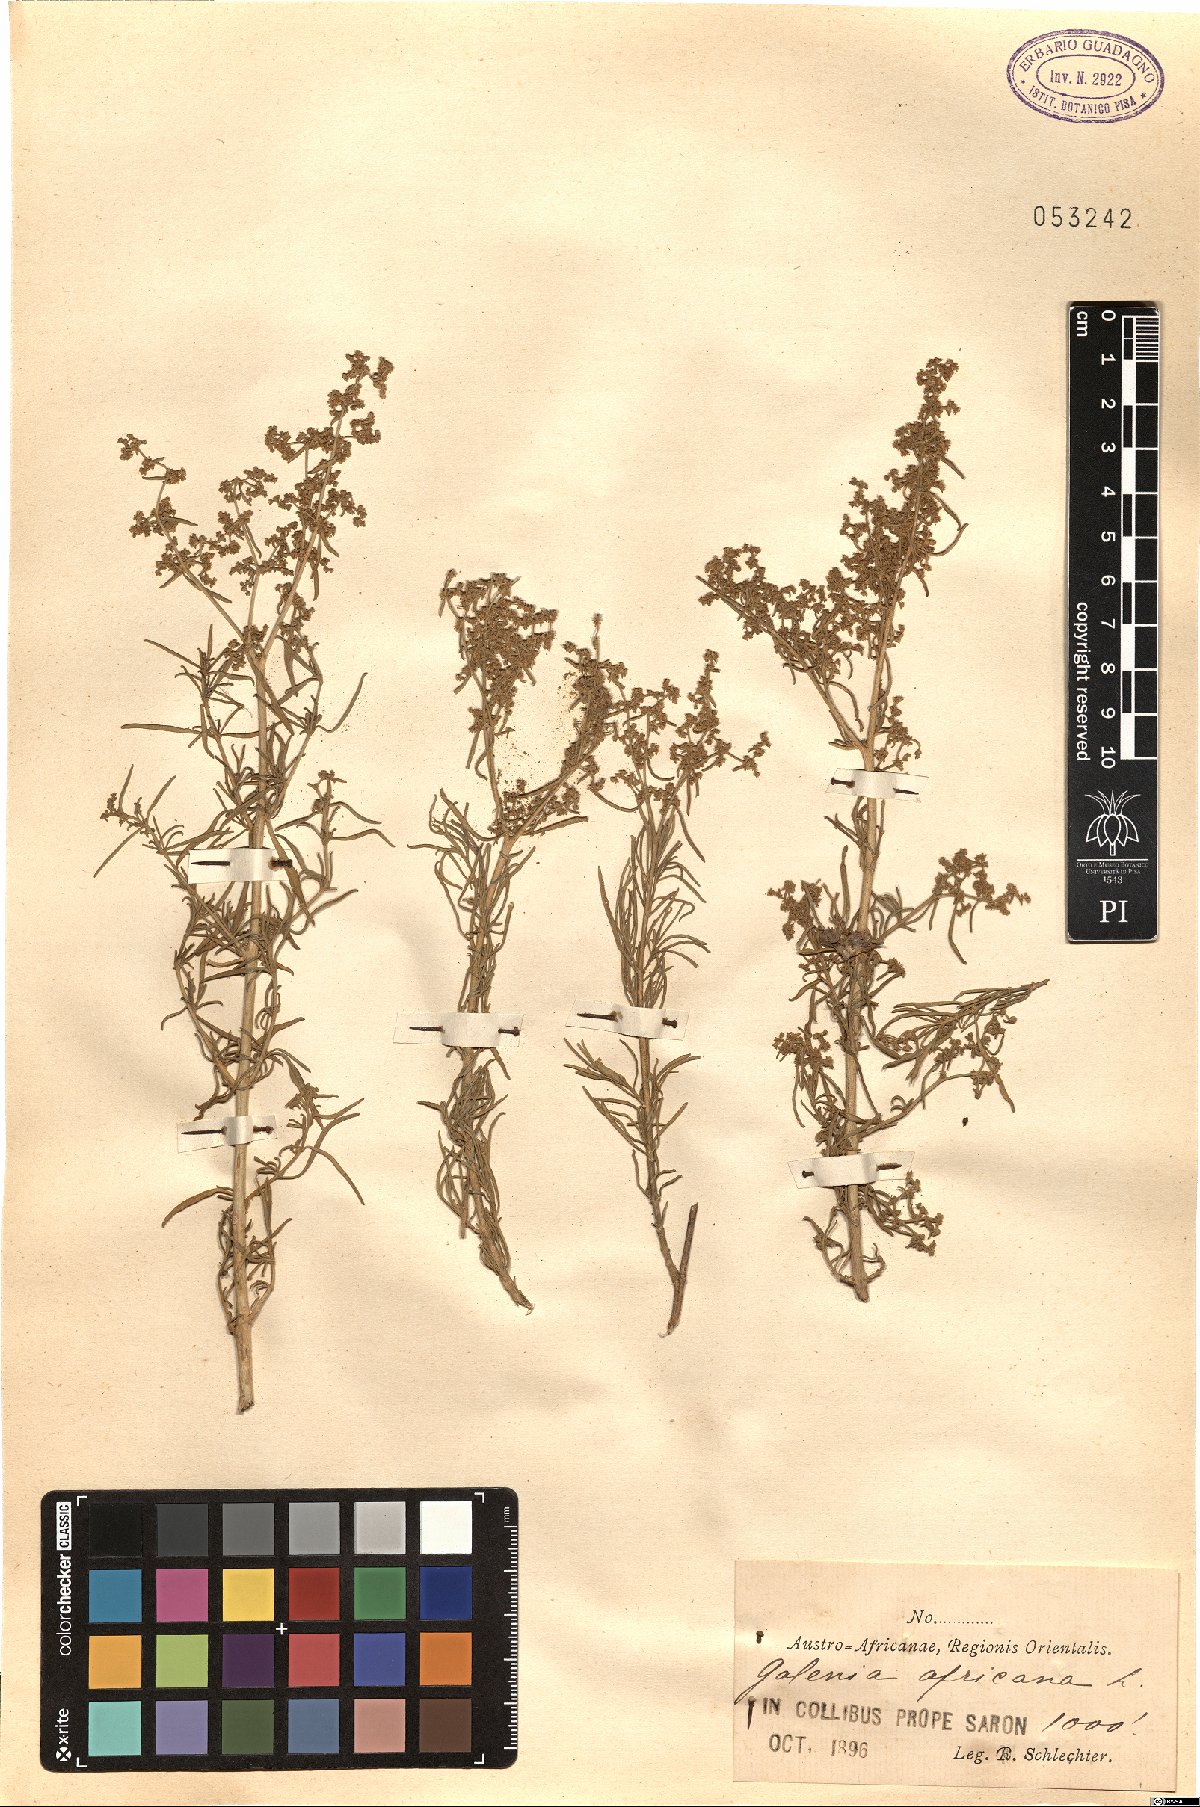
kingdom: Plantae
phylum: Tracheophyta
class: Magnoliopsida
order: Caryophyllales
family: Aizoaceae
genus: Aizoon
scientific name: Aizoon africanum
